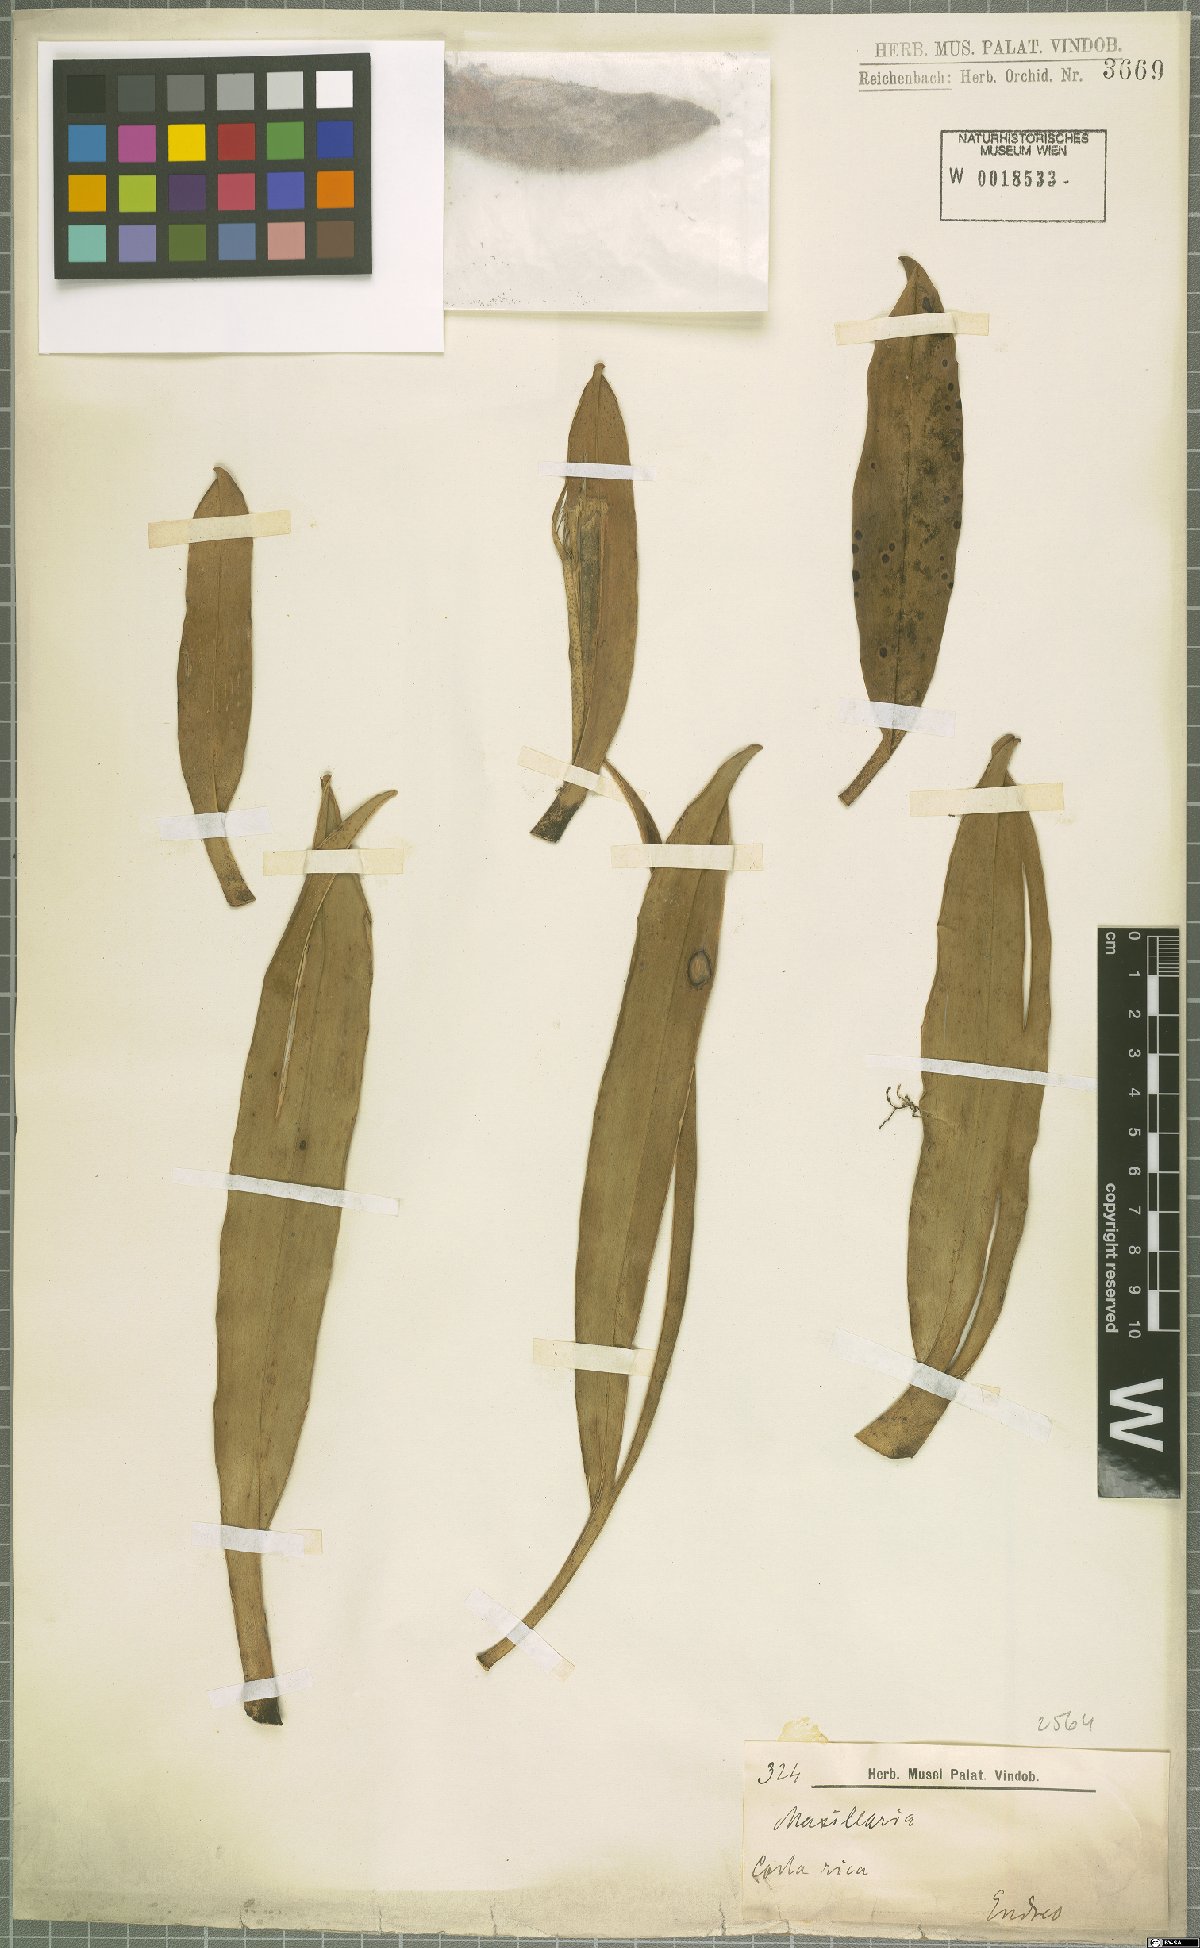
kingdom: Plantae
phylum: Tracheophyta
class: Liliopsida
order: Asparagales
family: Orchidaceae
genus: Maxillaria
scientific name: Maxillaria
